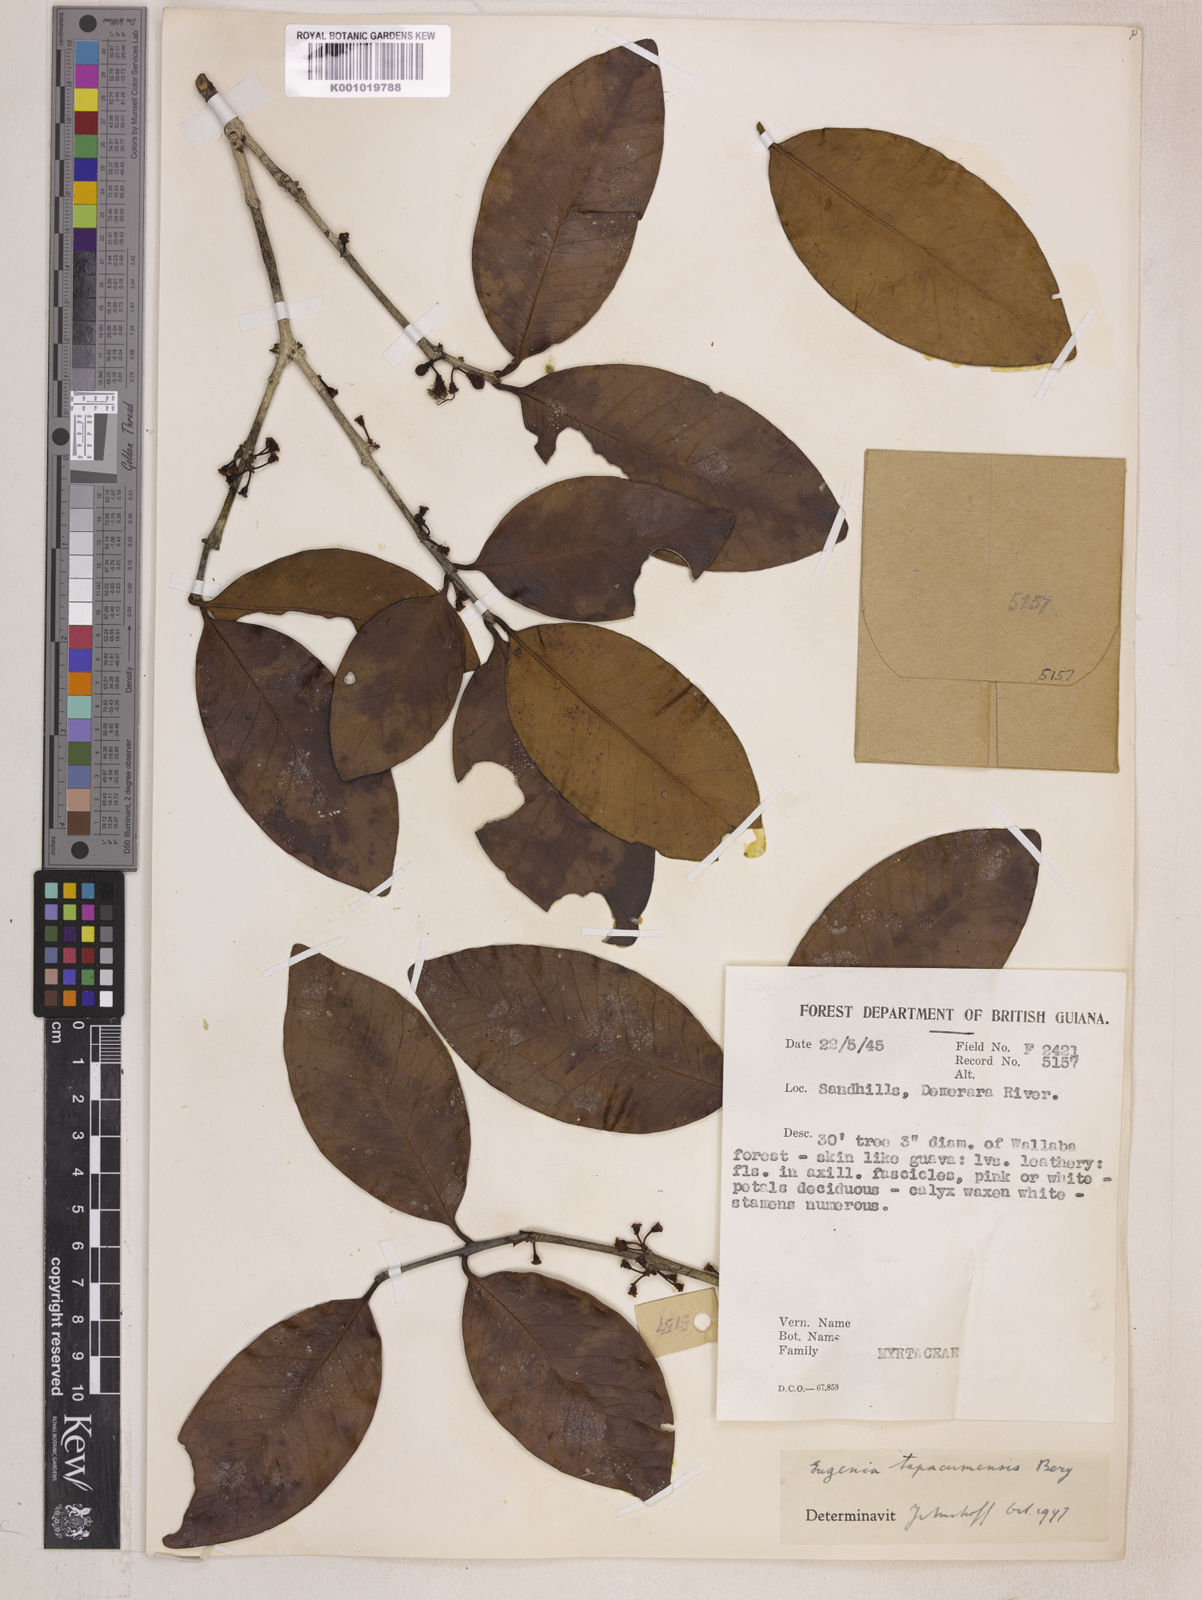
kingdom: Plantae
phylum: Tracheophyta
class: Magnoliopsida
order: Myrtales
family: Myrtaceae
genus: Eugenia
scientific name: Eugenia stictopetala
